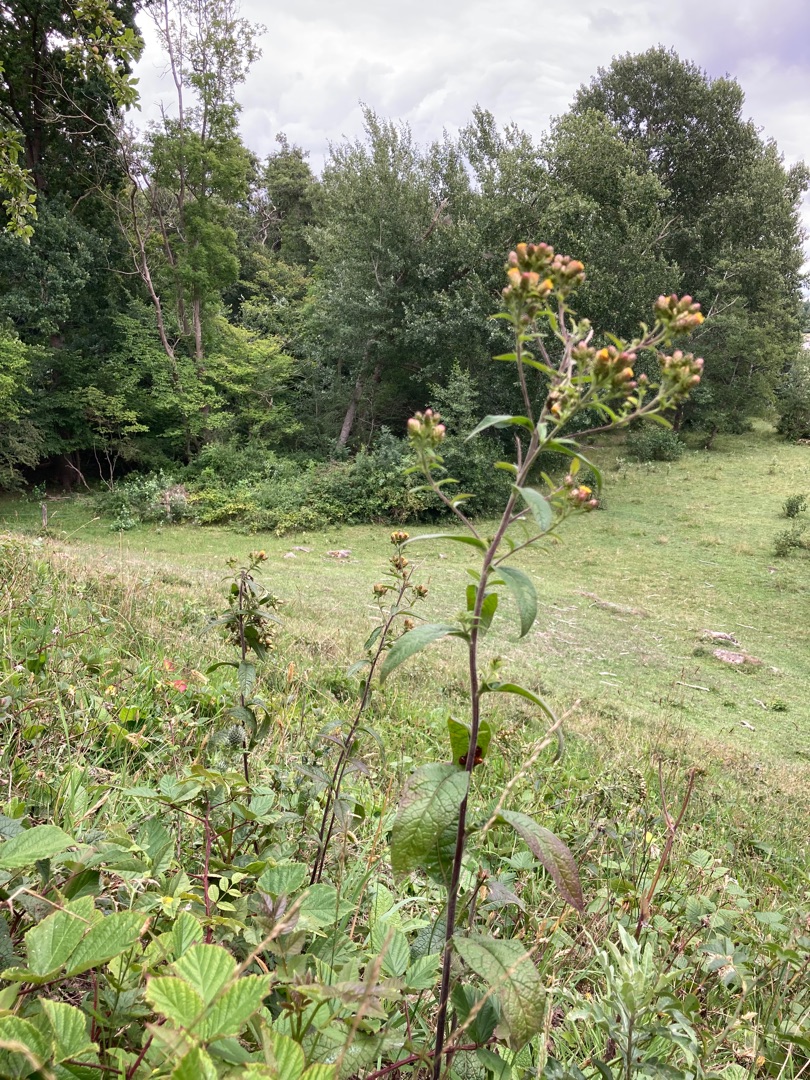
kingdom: Plantae
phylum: Tracheophyta
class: Magnoliopsida
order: Asterales
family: Asteraceae
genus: Pentanema
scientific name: Pentanema squarrosum
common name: Trekløft-alant
